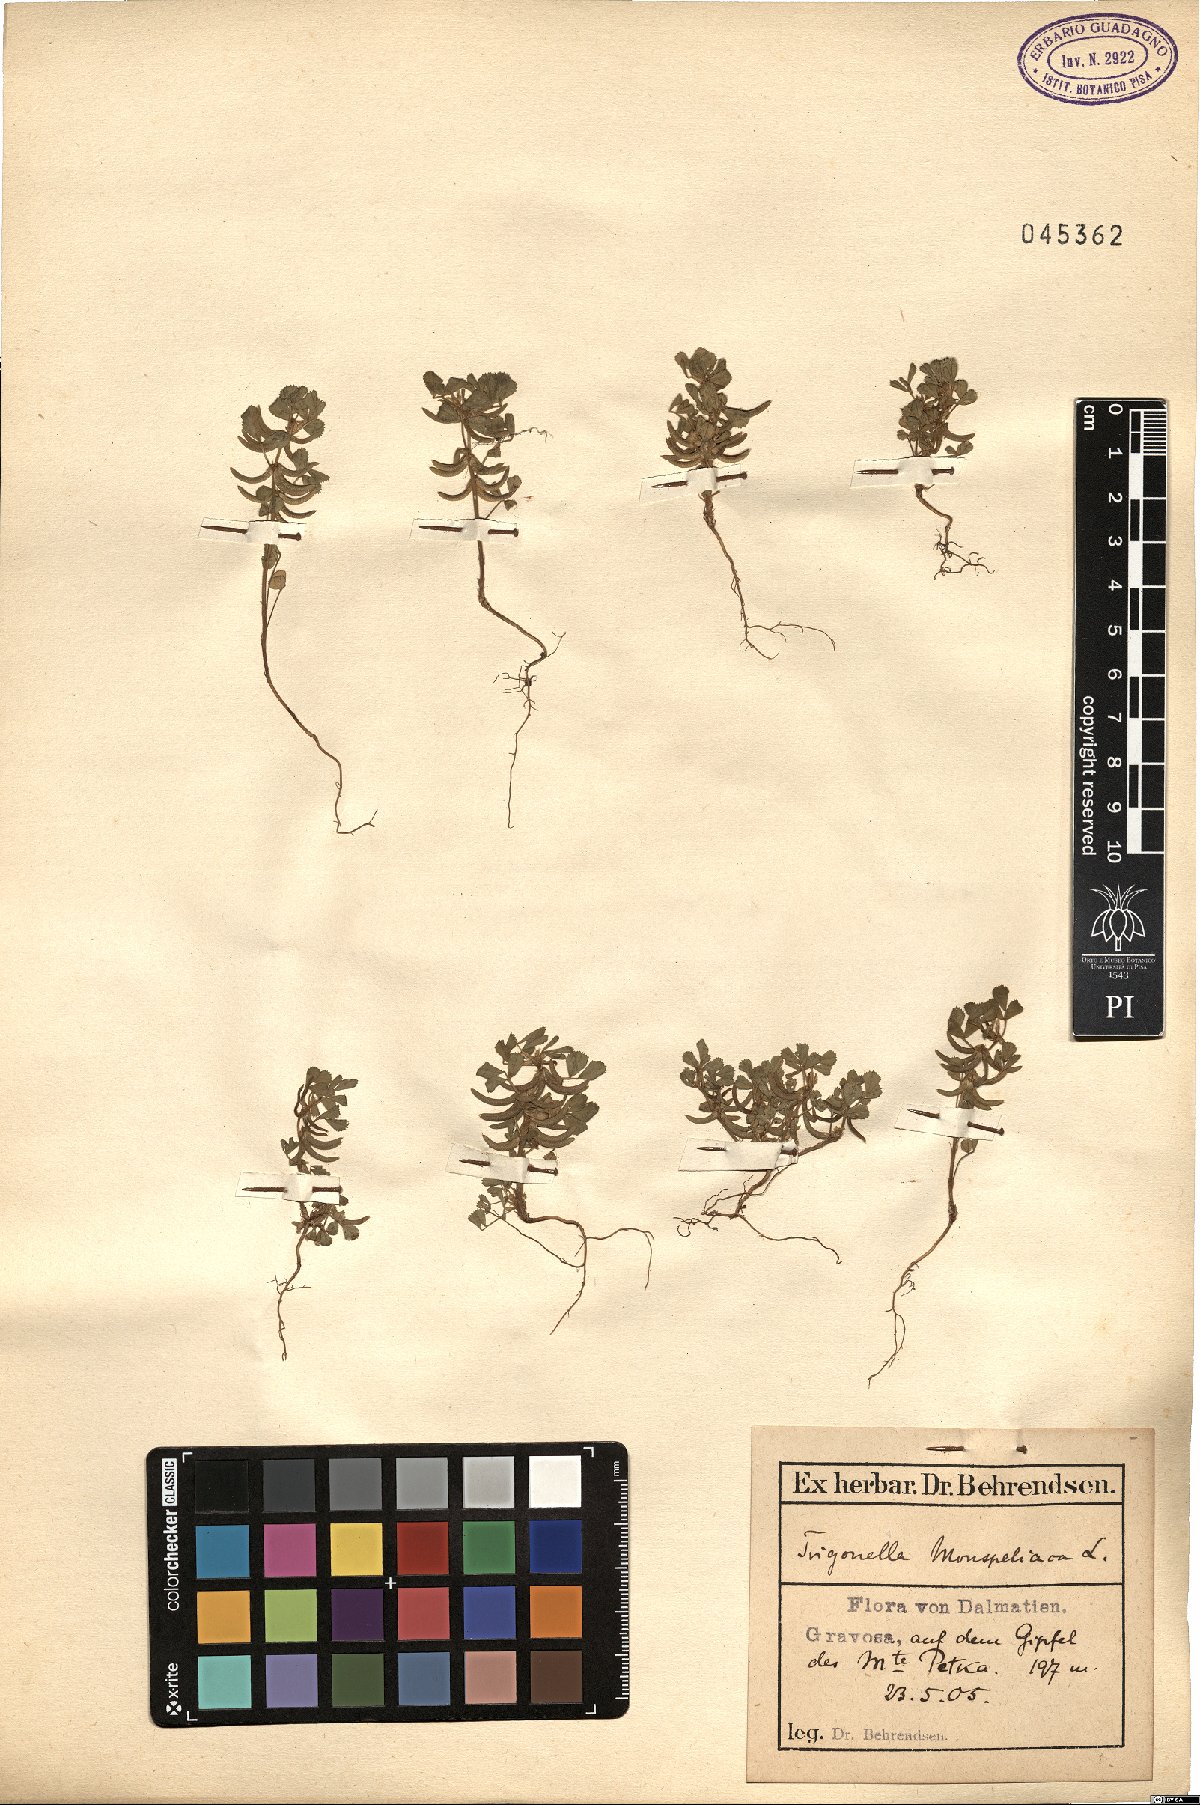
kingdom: Plantae
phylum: Tracheophyta
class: Magnoliopsida
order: Fabales
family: Fabaceae
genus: Medicago
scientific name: Medicago monspeliaca
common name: Hairy medick
